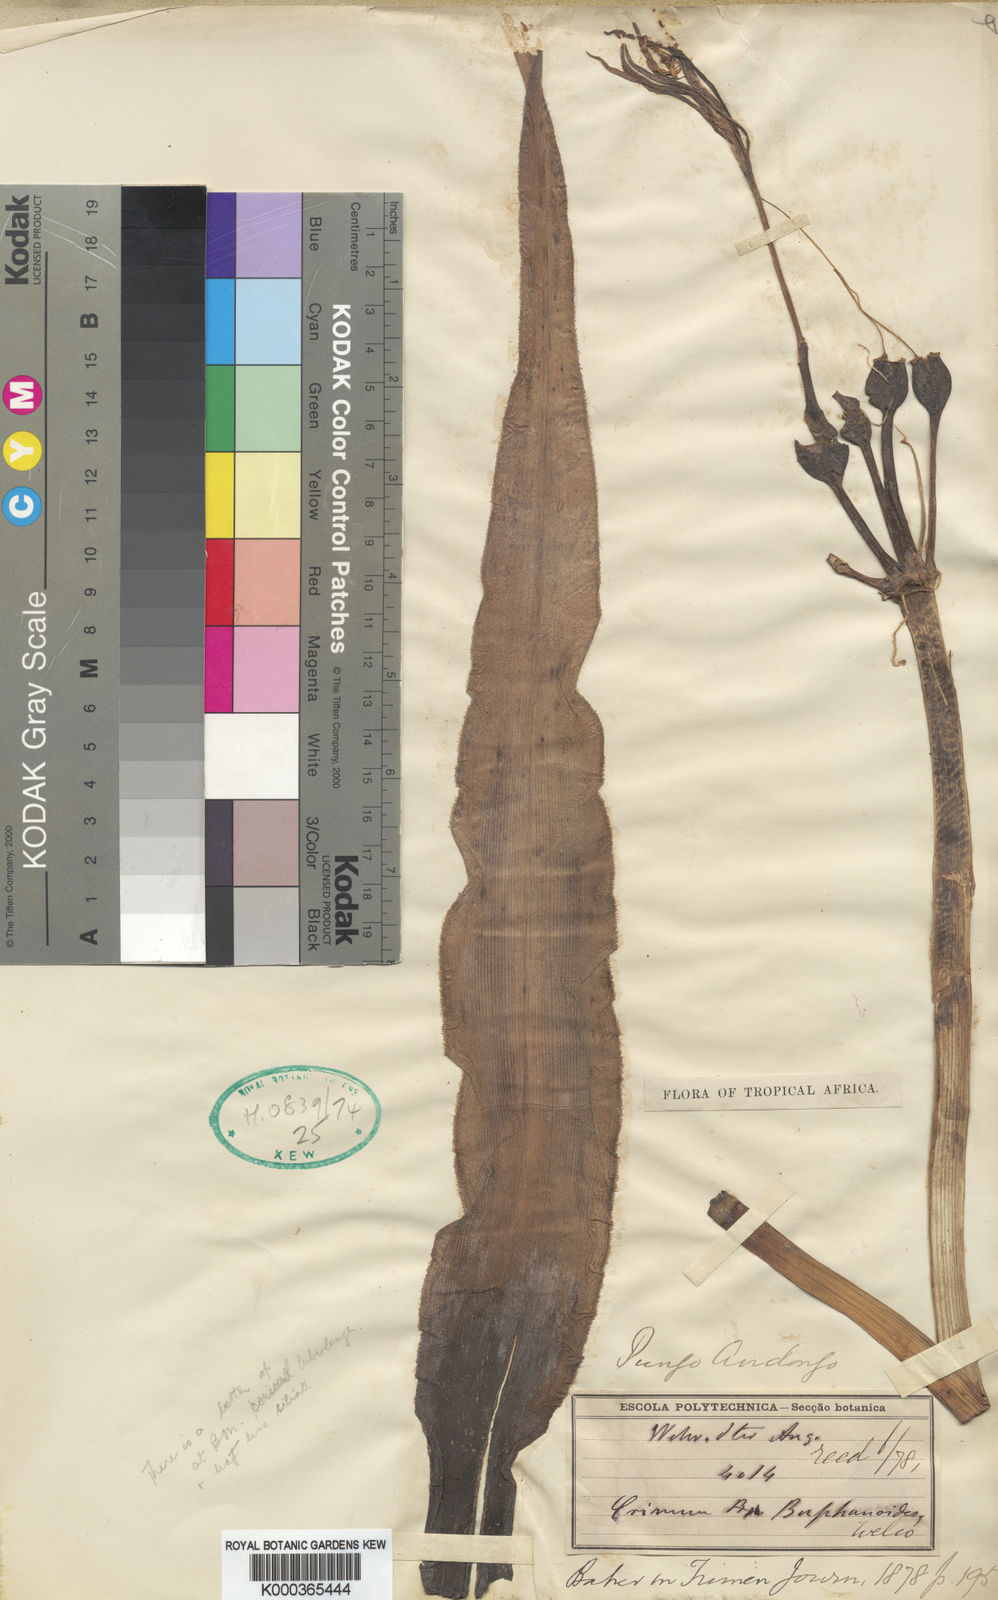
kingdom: Plantae
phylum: Tracheophyta
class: Liliopsida
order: Asparagales
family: Amaryllidaceae
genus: Crinum
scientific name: Crinum buphanoides
